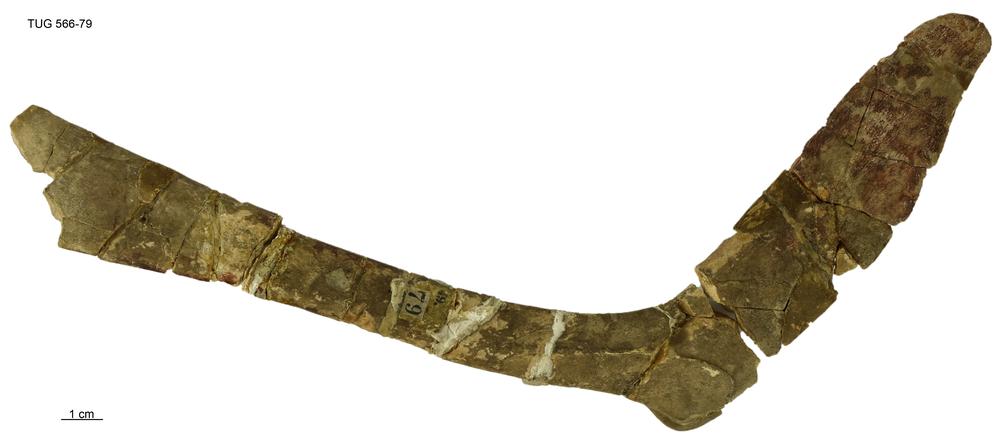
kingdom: Animalia
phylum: Chordata
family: Heterosteidae
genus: Heterosteus
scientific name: Heterosteus
